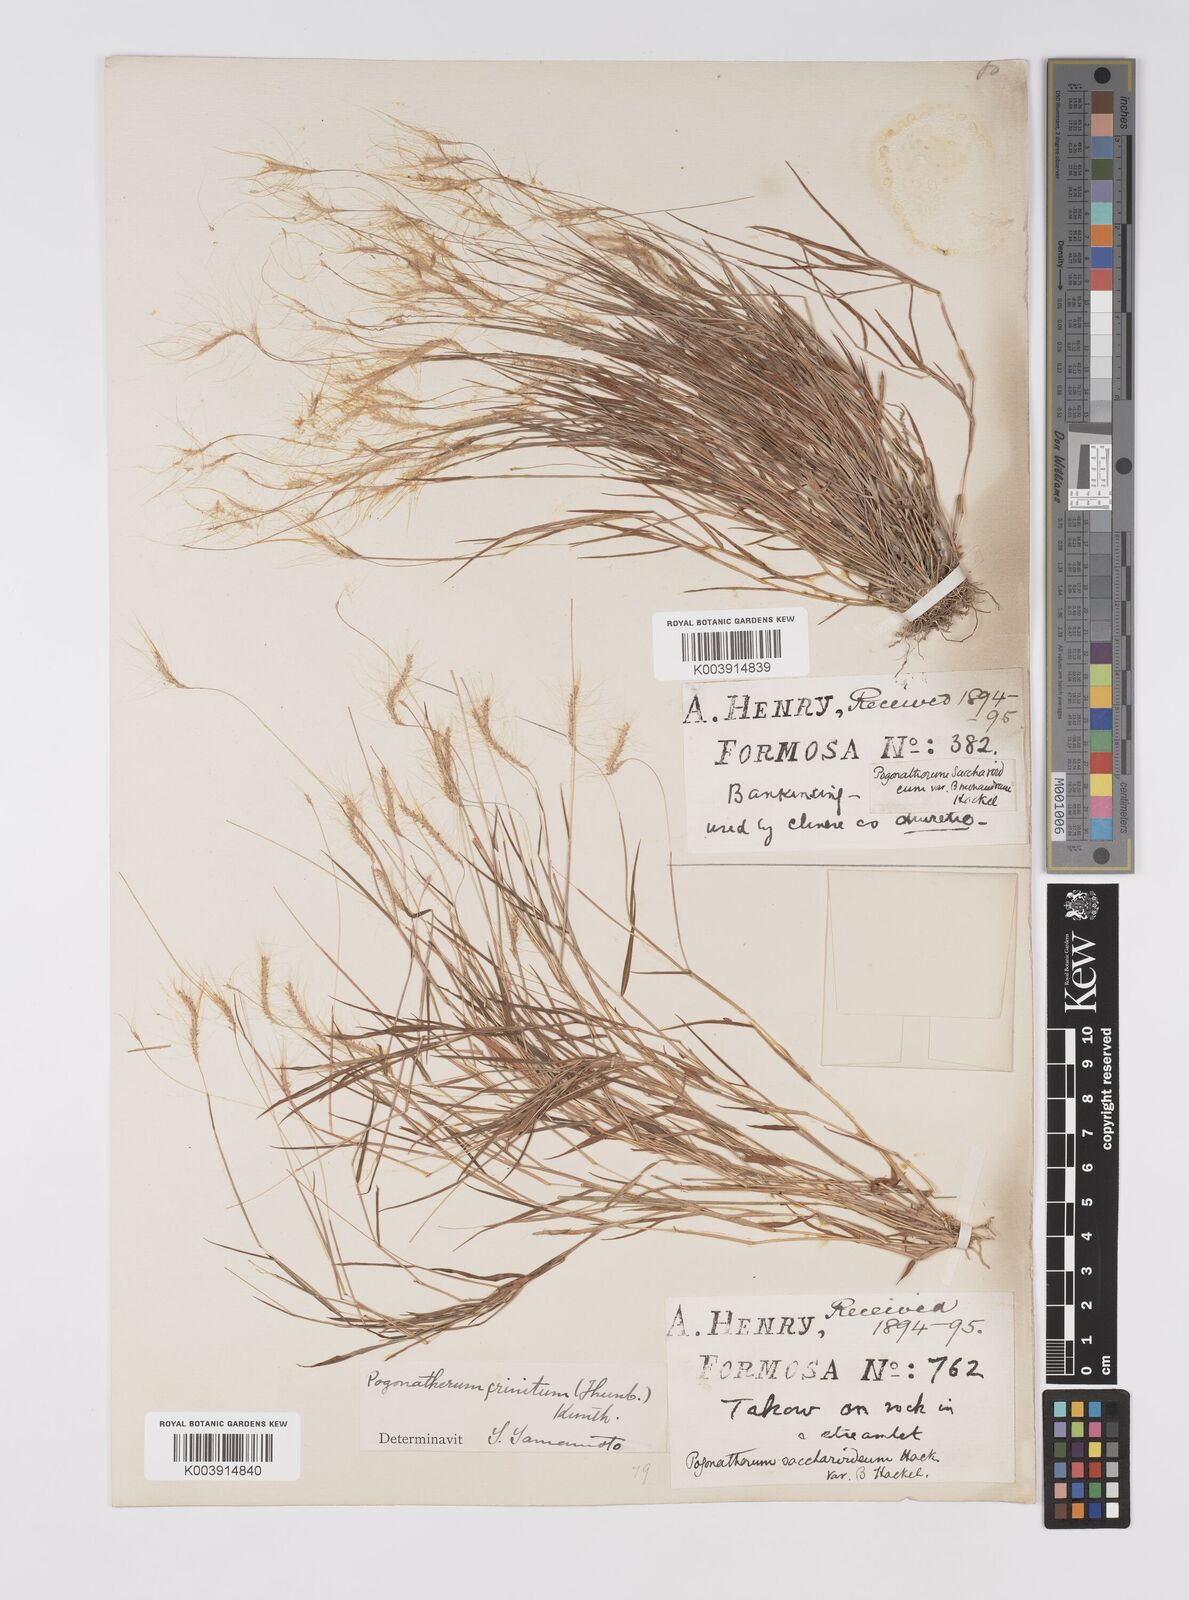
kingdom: Plantae
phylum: Tracheophyta
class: Liliopsida
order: Poales
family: Poaceae
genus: Pogonatherum
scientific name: Pogonatherum crinitum
